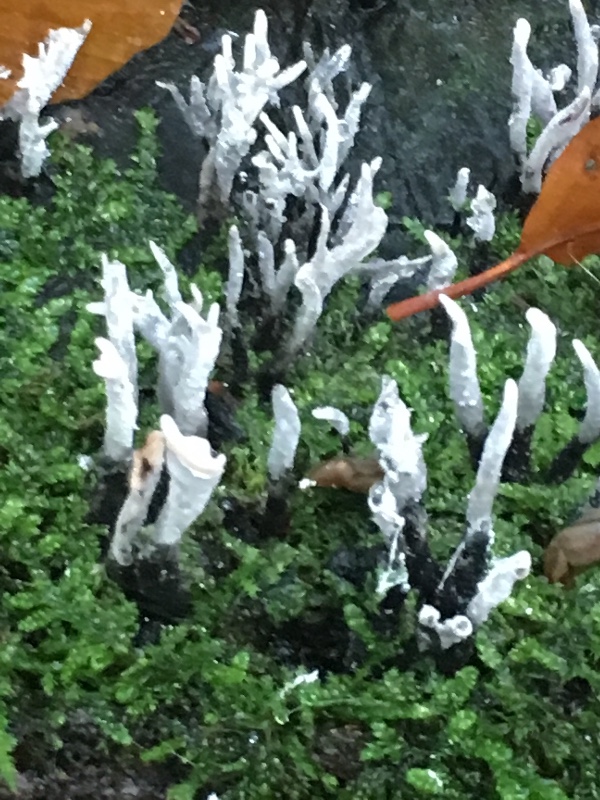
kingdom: Fungi
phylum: Ascomycota
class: Sordariomycetes
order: Xylariales
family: Xylariaceae
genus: Xylaria
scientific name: Xylaria hypoxylon
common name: grenet stødsvamp
